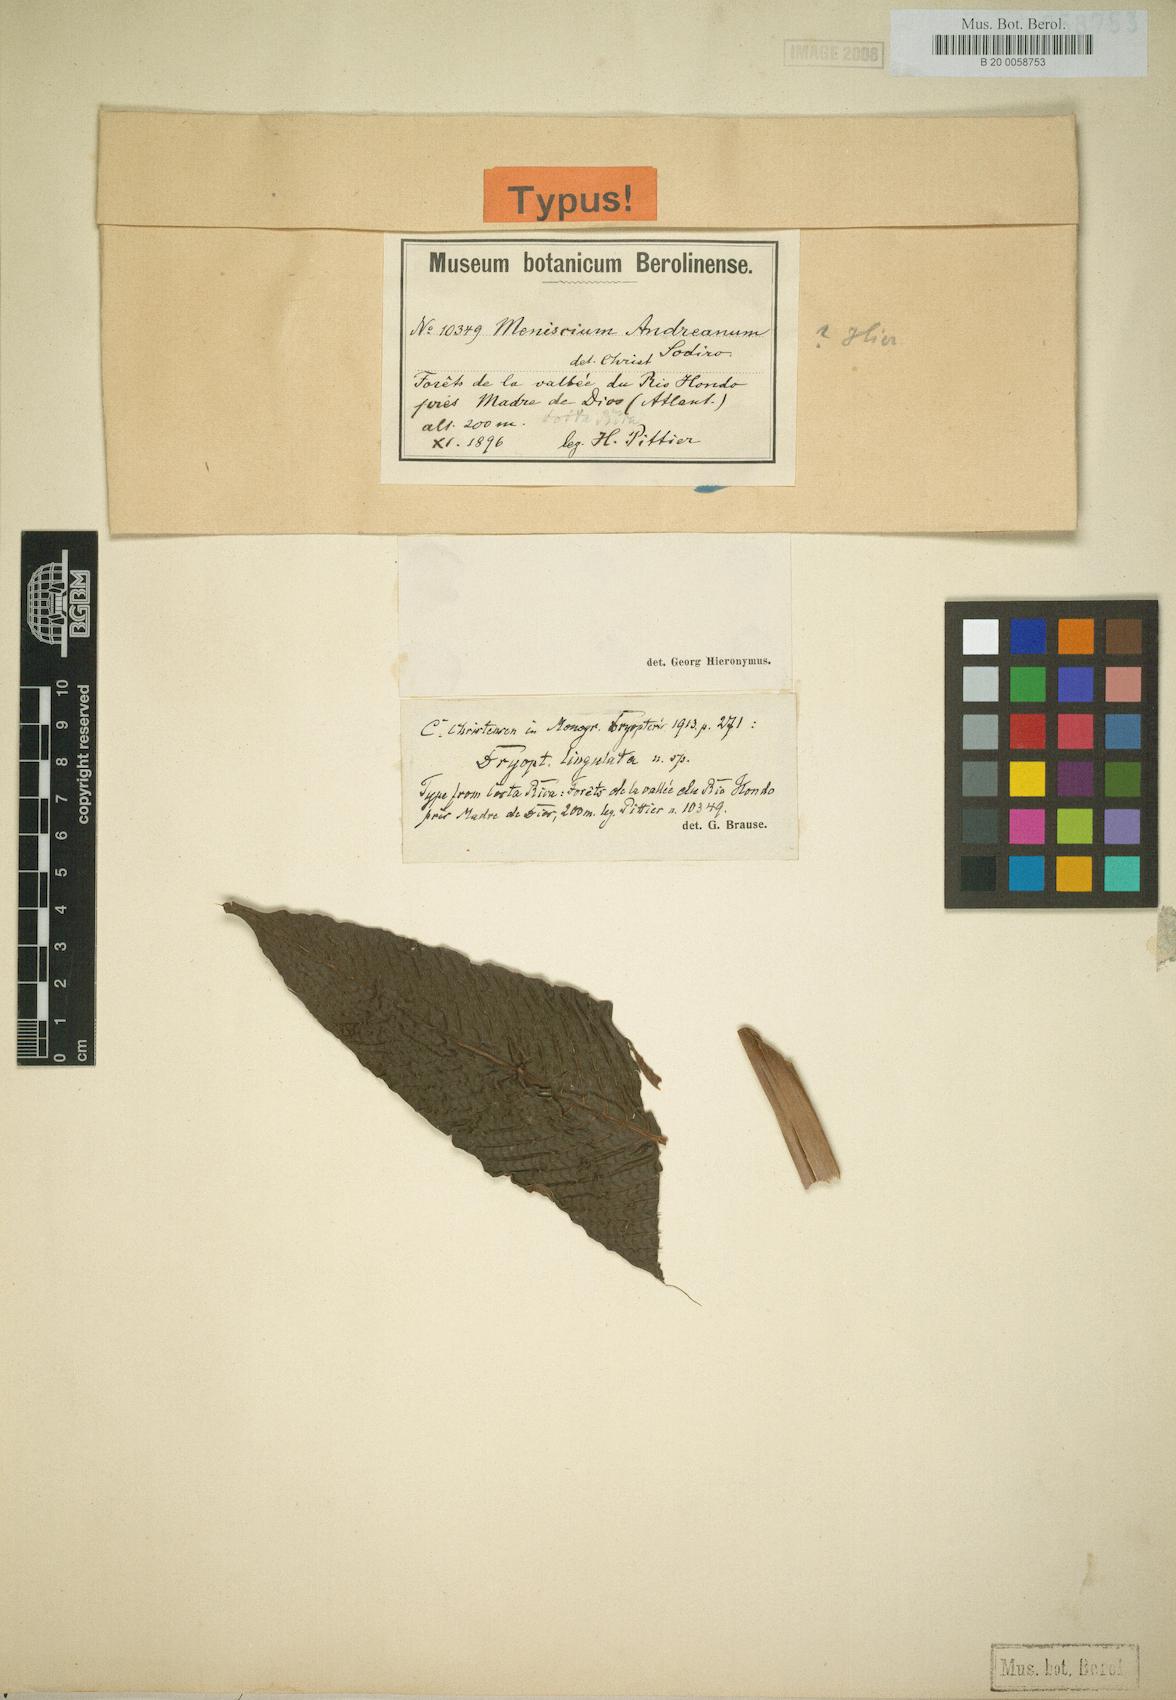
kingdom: Plantae
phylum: Tracheophyta
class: Polypodiopsida
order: Polypodiales
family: Thelypteridaceae
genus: Meniscium
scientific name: Meniscium lingulatum
